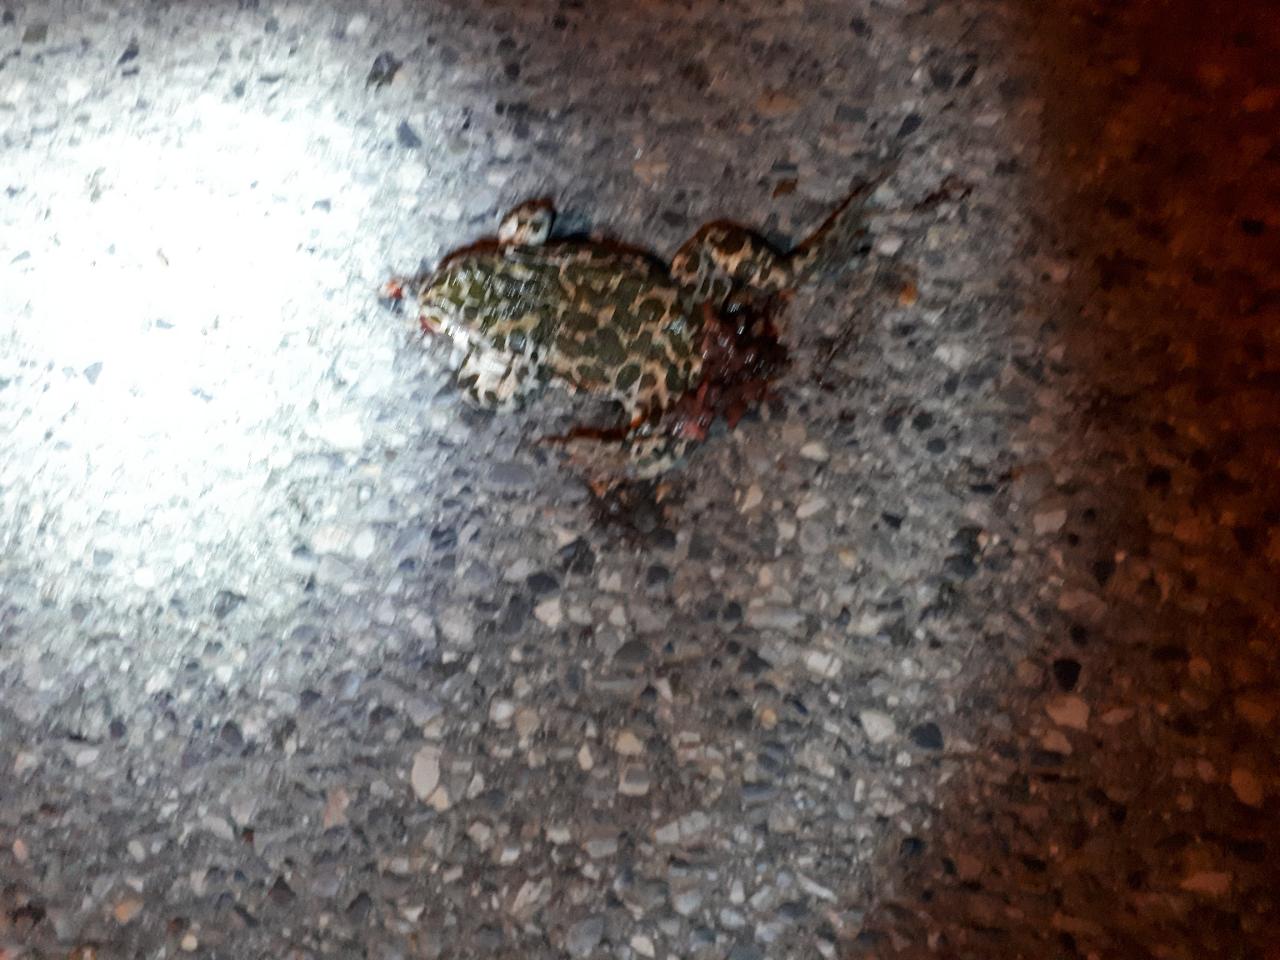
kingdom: Animalia
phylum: Chordata
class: Amphibia
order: Anura
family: Bufonidae
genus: Bufotes
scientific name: Bufotes viridis
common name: European green toad
